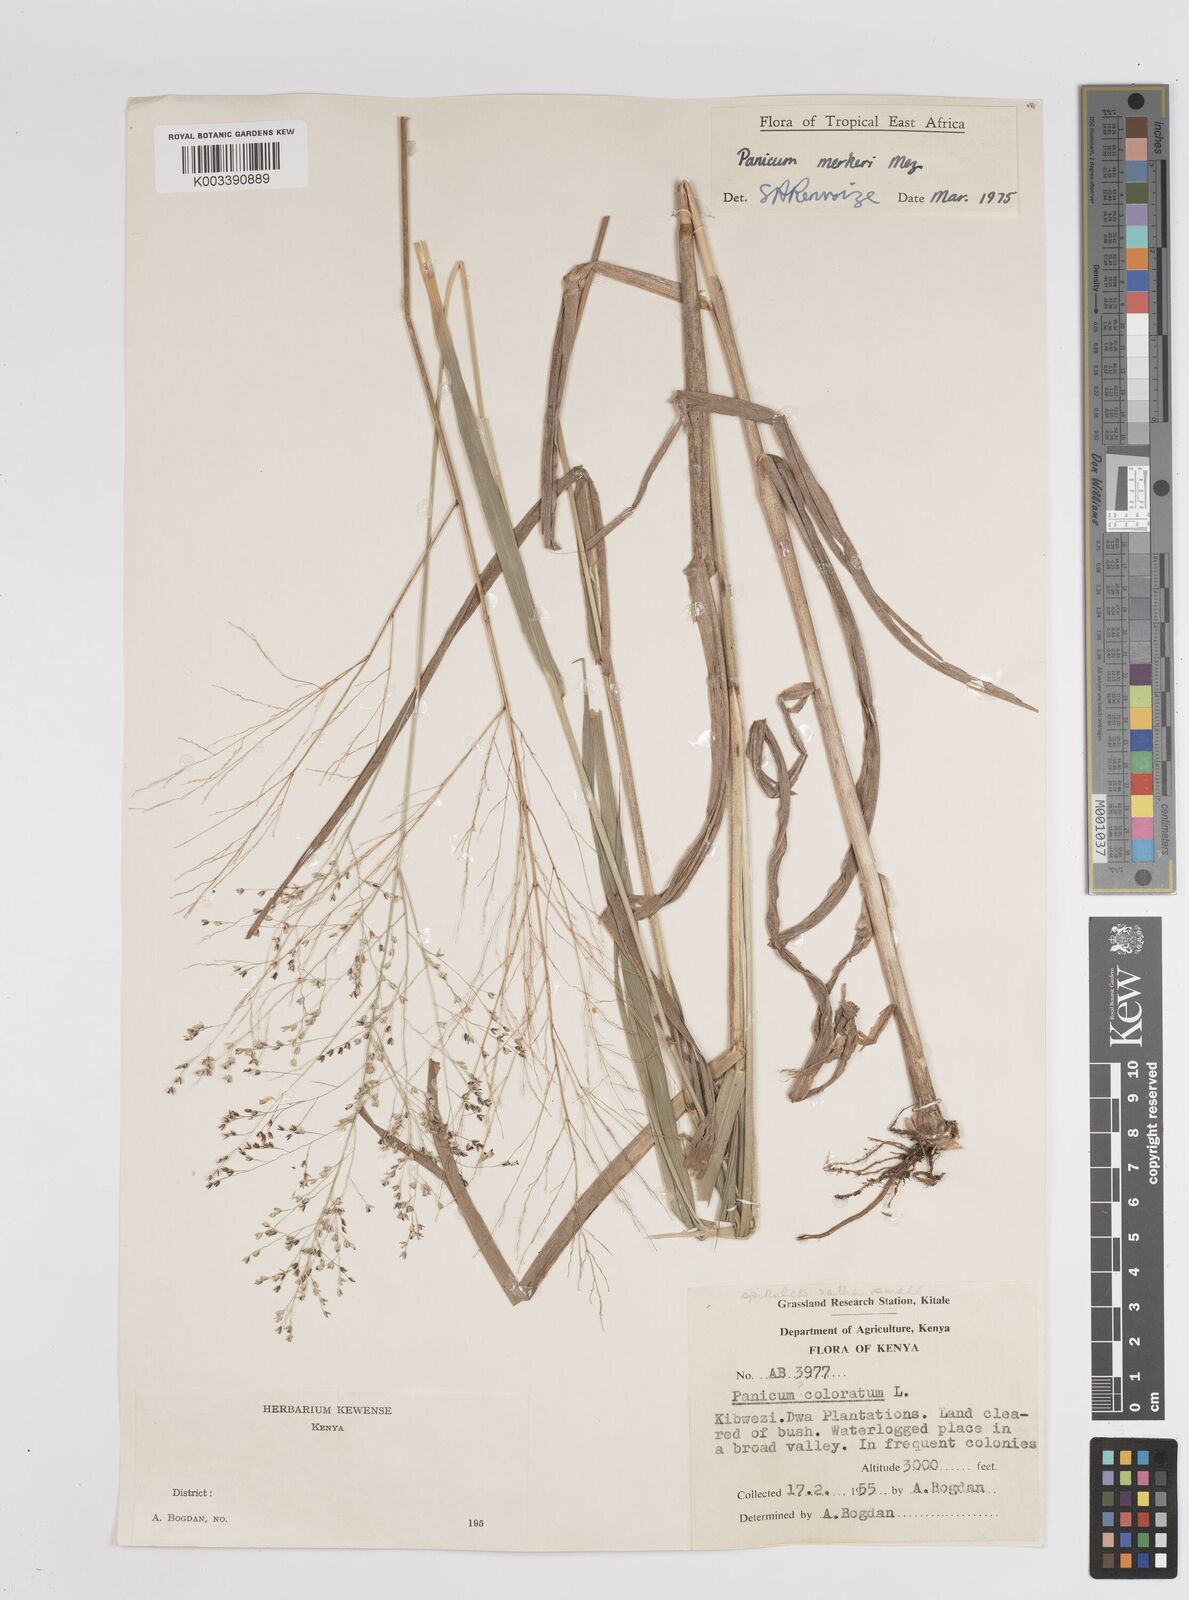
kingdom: Plantae
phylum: Tracheophyta
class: Liliopsida
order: Poales
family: Poaceae
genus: Panicum
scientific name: Panicum merkeri
